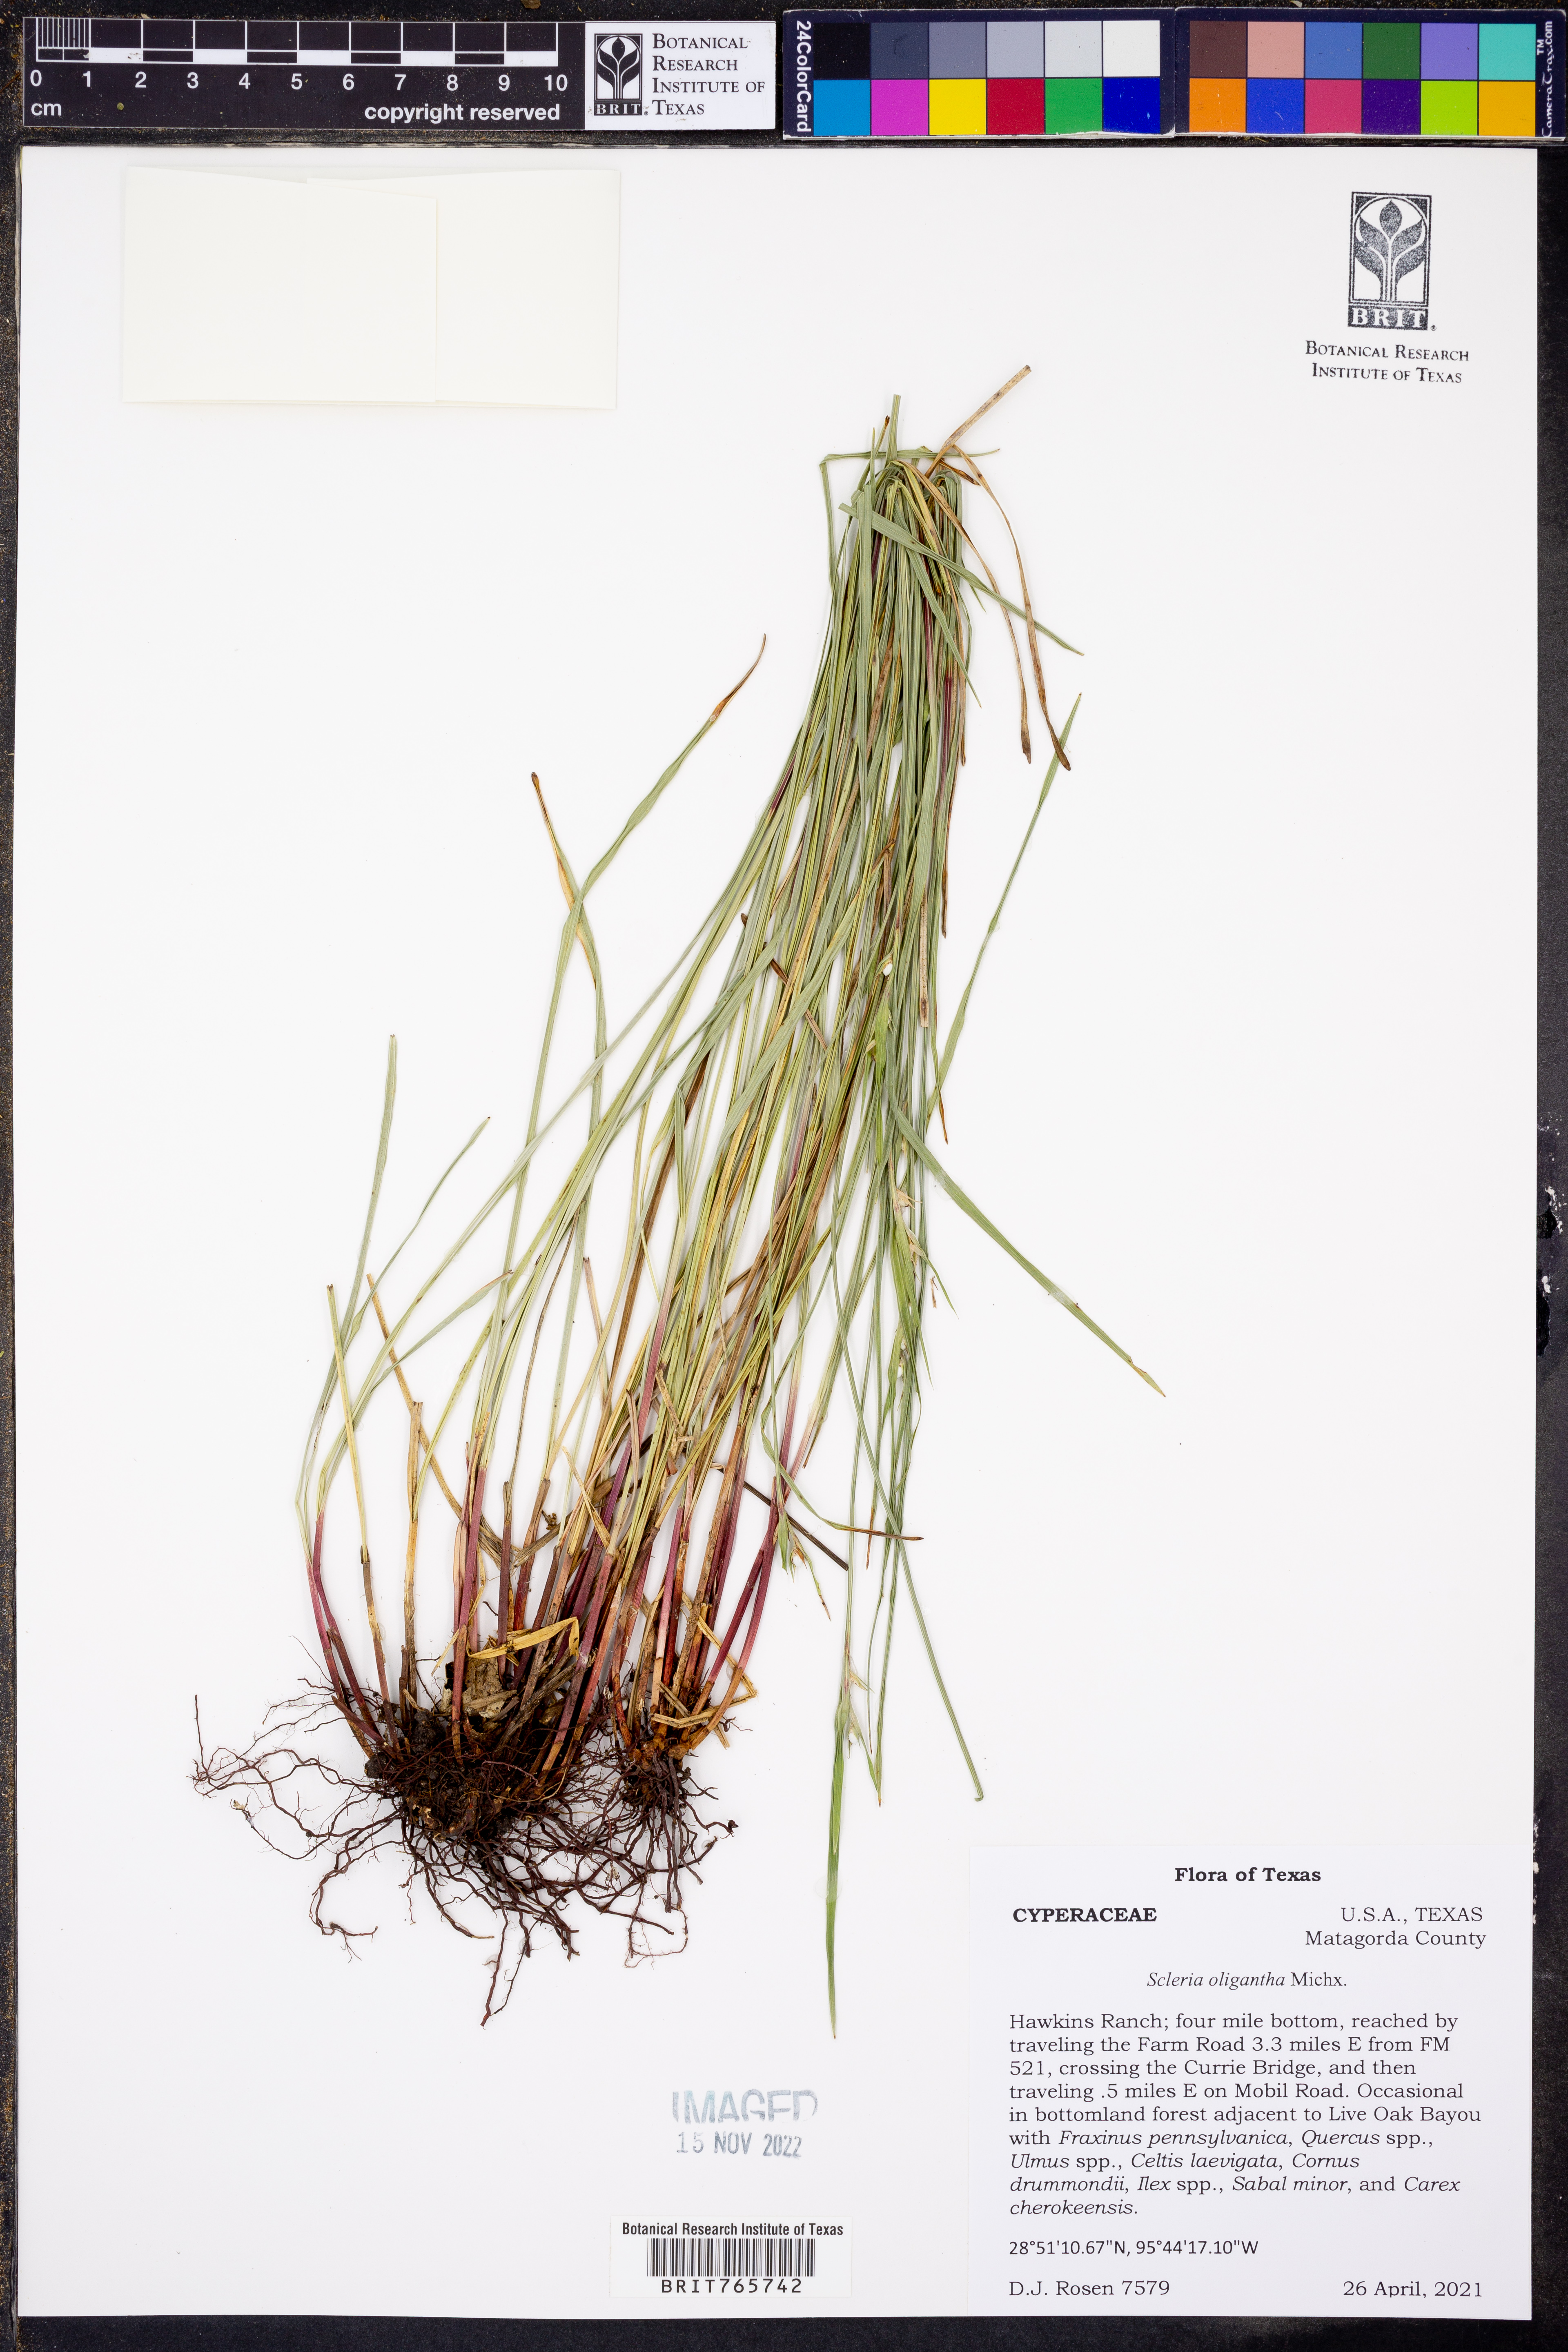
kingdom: Plantae
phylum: Tracheophyta
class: Liliopsida
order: Poales
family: Cyperaceae
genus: Scleria
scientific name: Scleria oligantha
